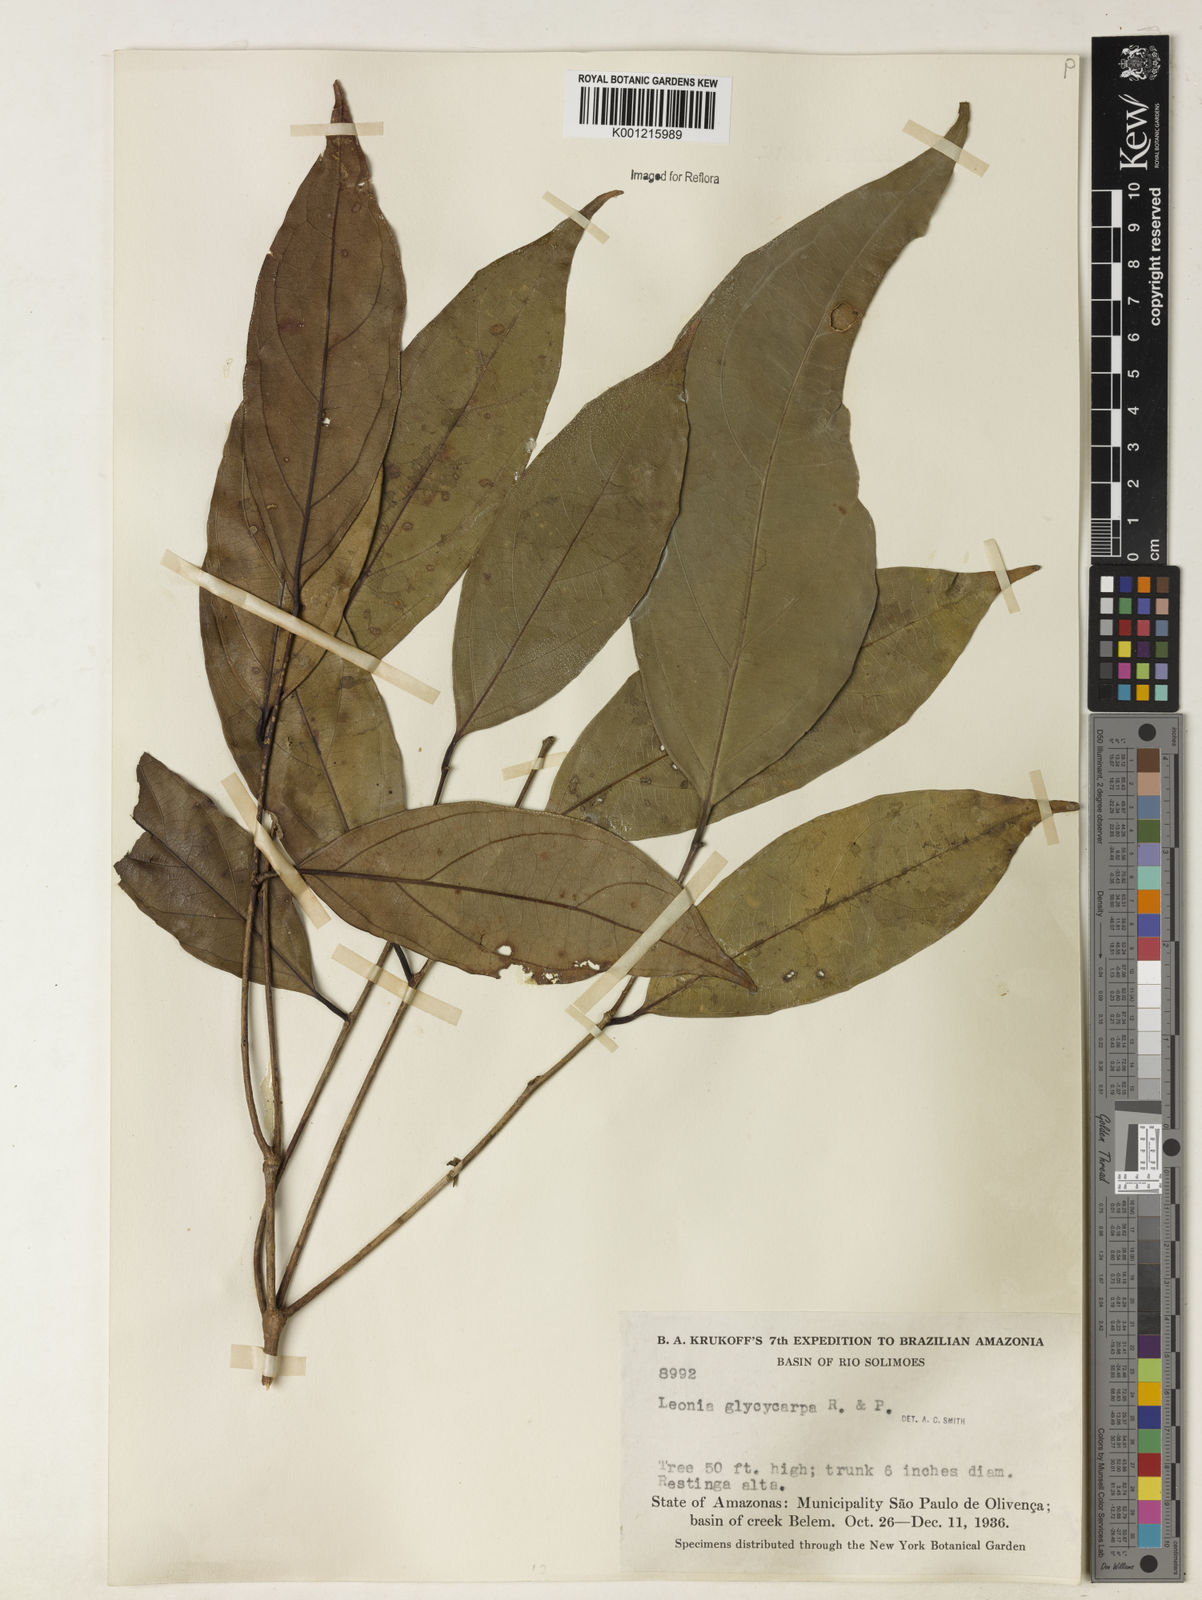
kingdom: Plantae
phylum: Tracheophyta
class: Magnoliopsida
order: Malpighiales
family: Violaceae
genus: Leonia
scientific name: Leonia glycycarpa
